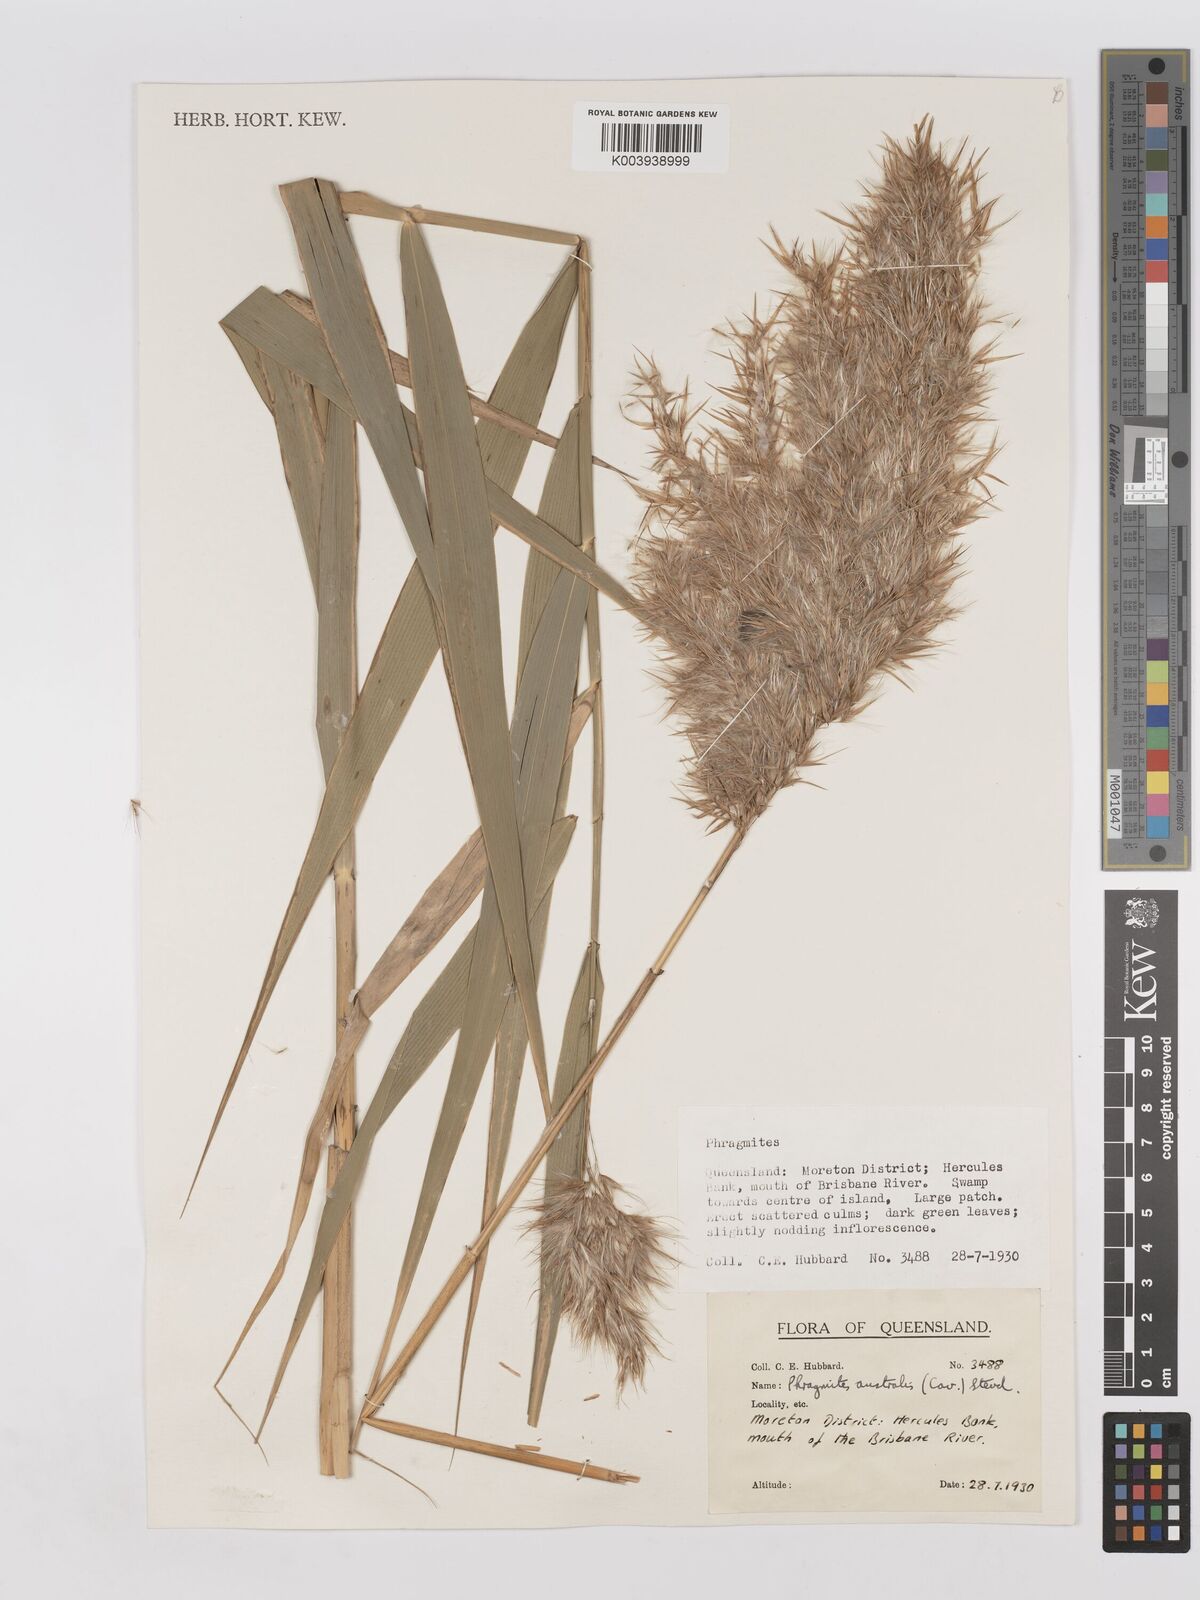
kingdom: Plantae
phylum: Tracheophyta
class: Liliopsida
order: Poales
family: Poaceae
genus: Phragmites
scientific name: Phragmites australis
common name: Common reed
